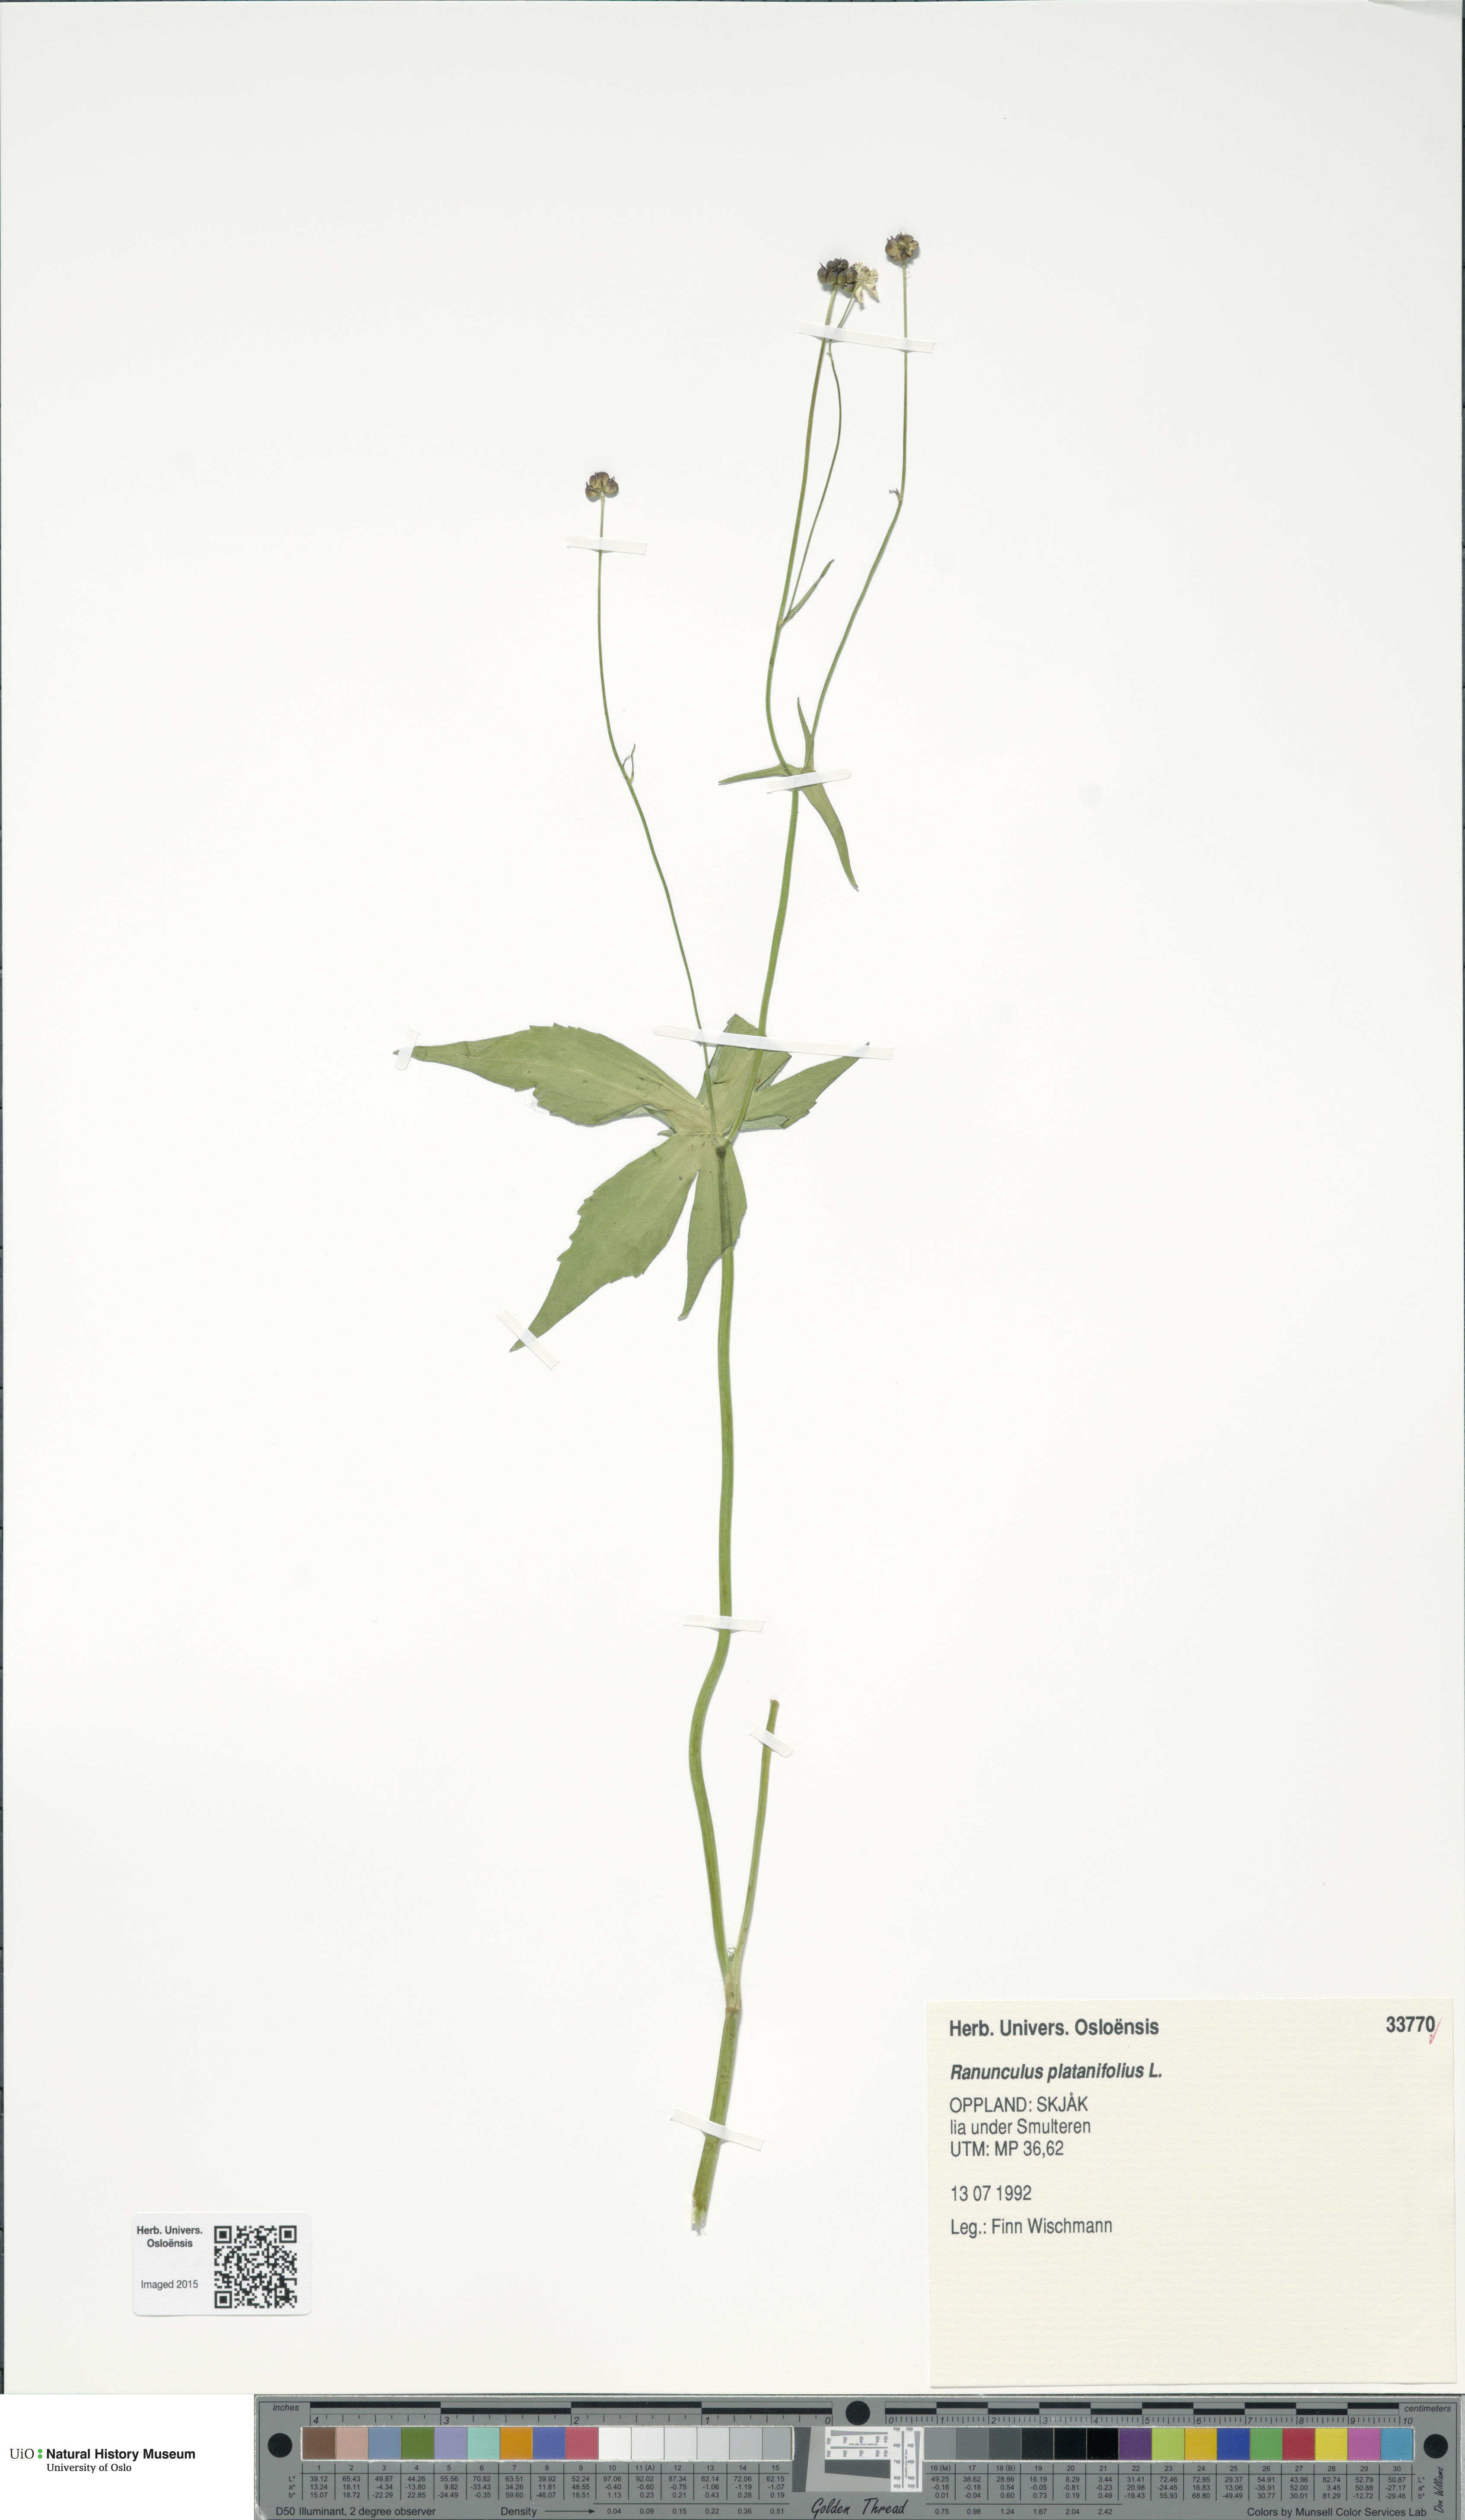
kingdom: Plantae
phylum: Tracheophyta
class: Magnoliopsida
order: Ranunculales
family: Ranunculaceae
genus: Ranunculus
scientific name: Ranunculus platanifolius
